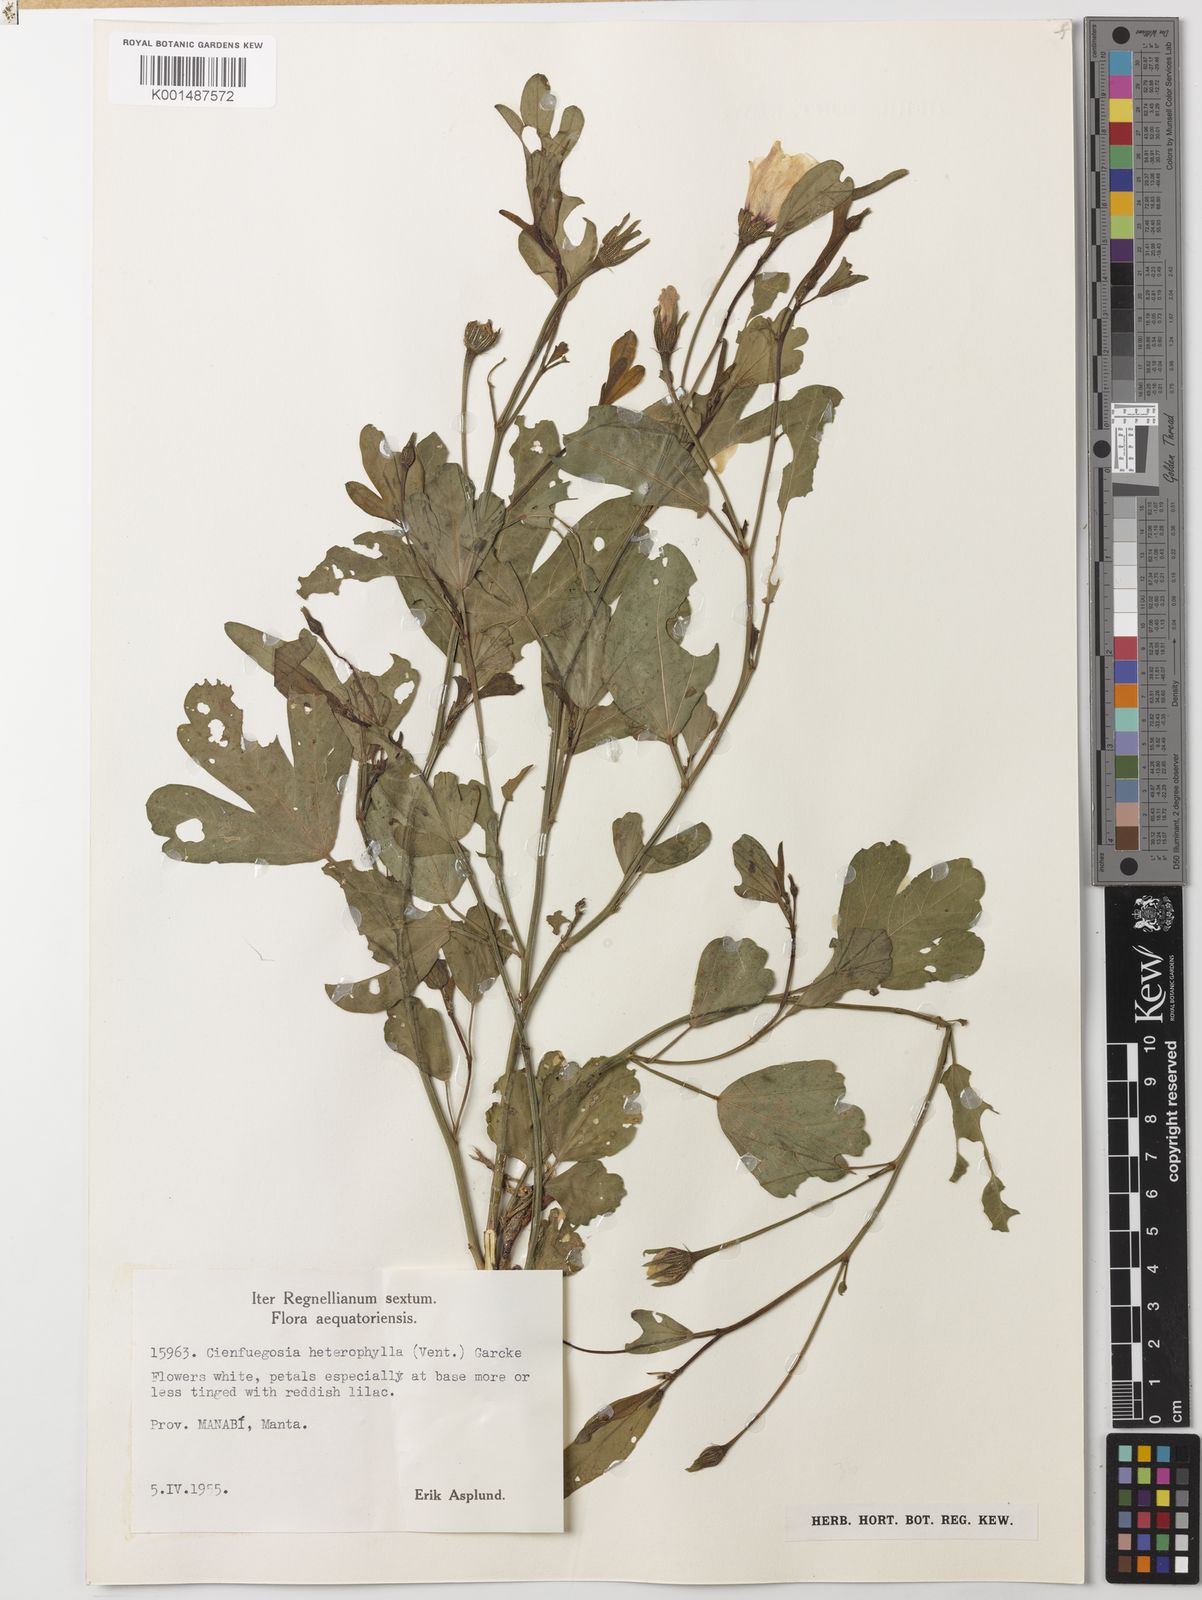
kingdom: Plantae
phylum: Tracheophyta
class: Magnoliopsida
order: Malvales
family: Malvaceae
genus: Cienfuegosia
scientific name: Cienfuegosia heterophylla
